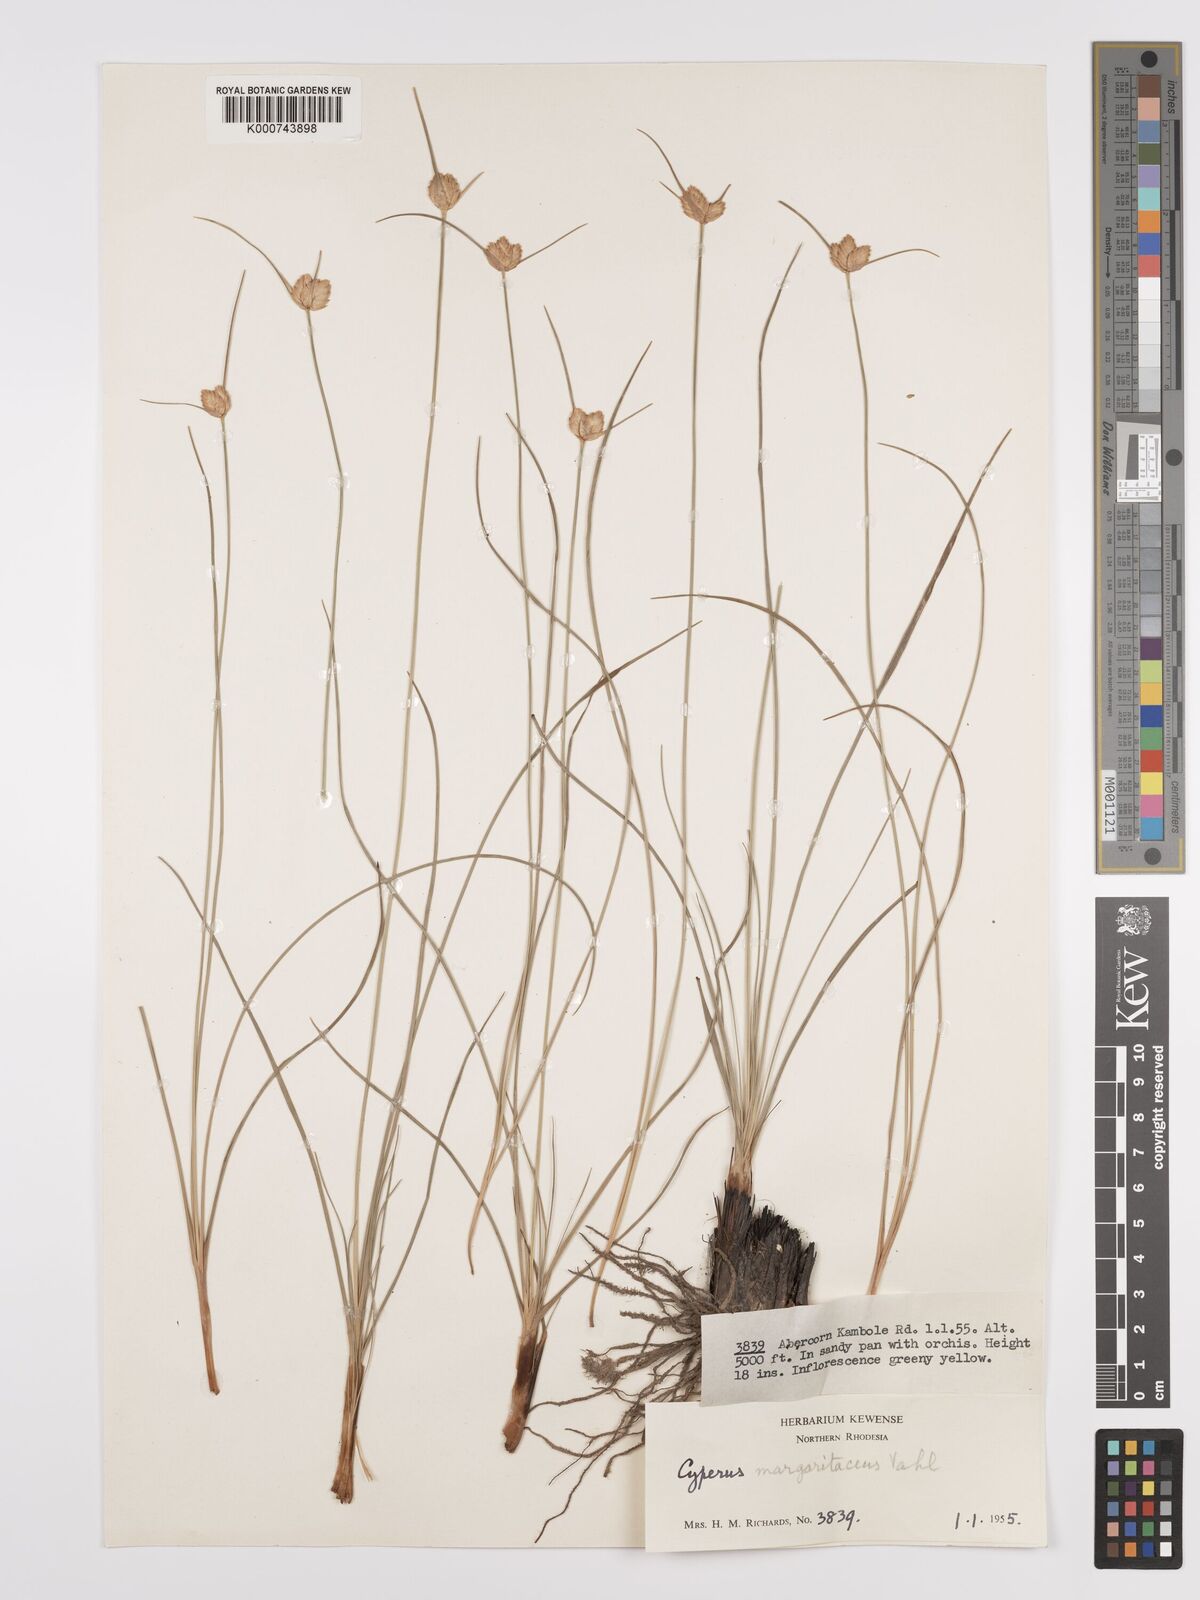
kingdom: Plantae
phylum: Tracheophyta
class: Liliopsida
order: Poales
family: Cyperaceae
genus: Cyperus
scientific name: Cyperus margaritaceus
